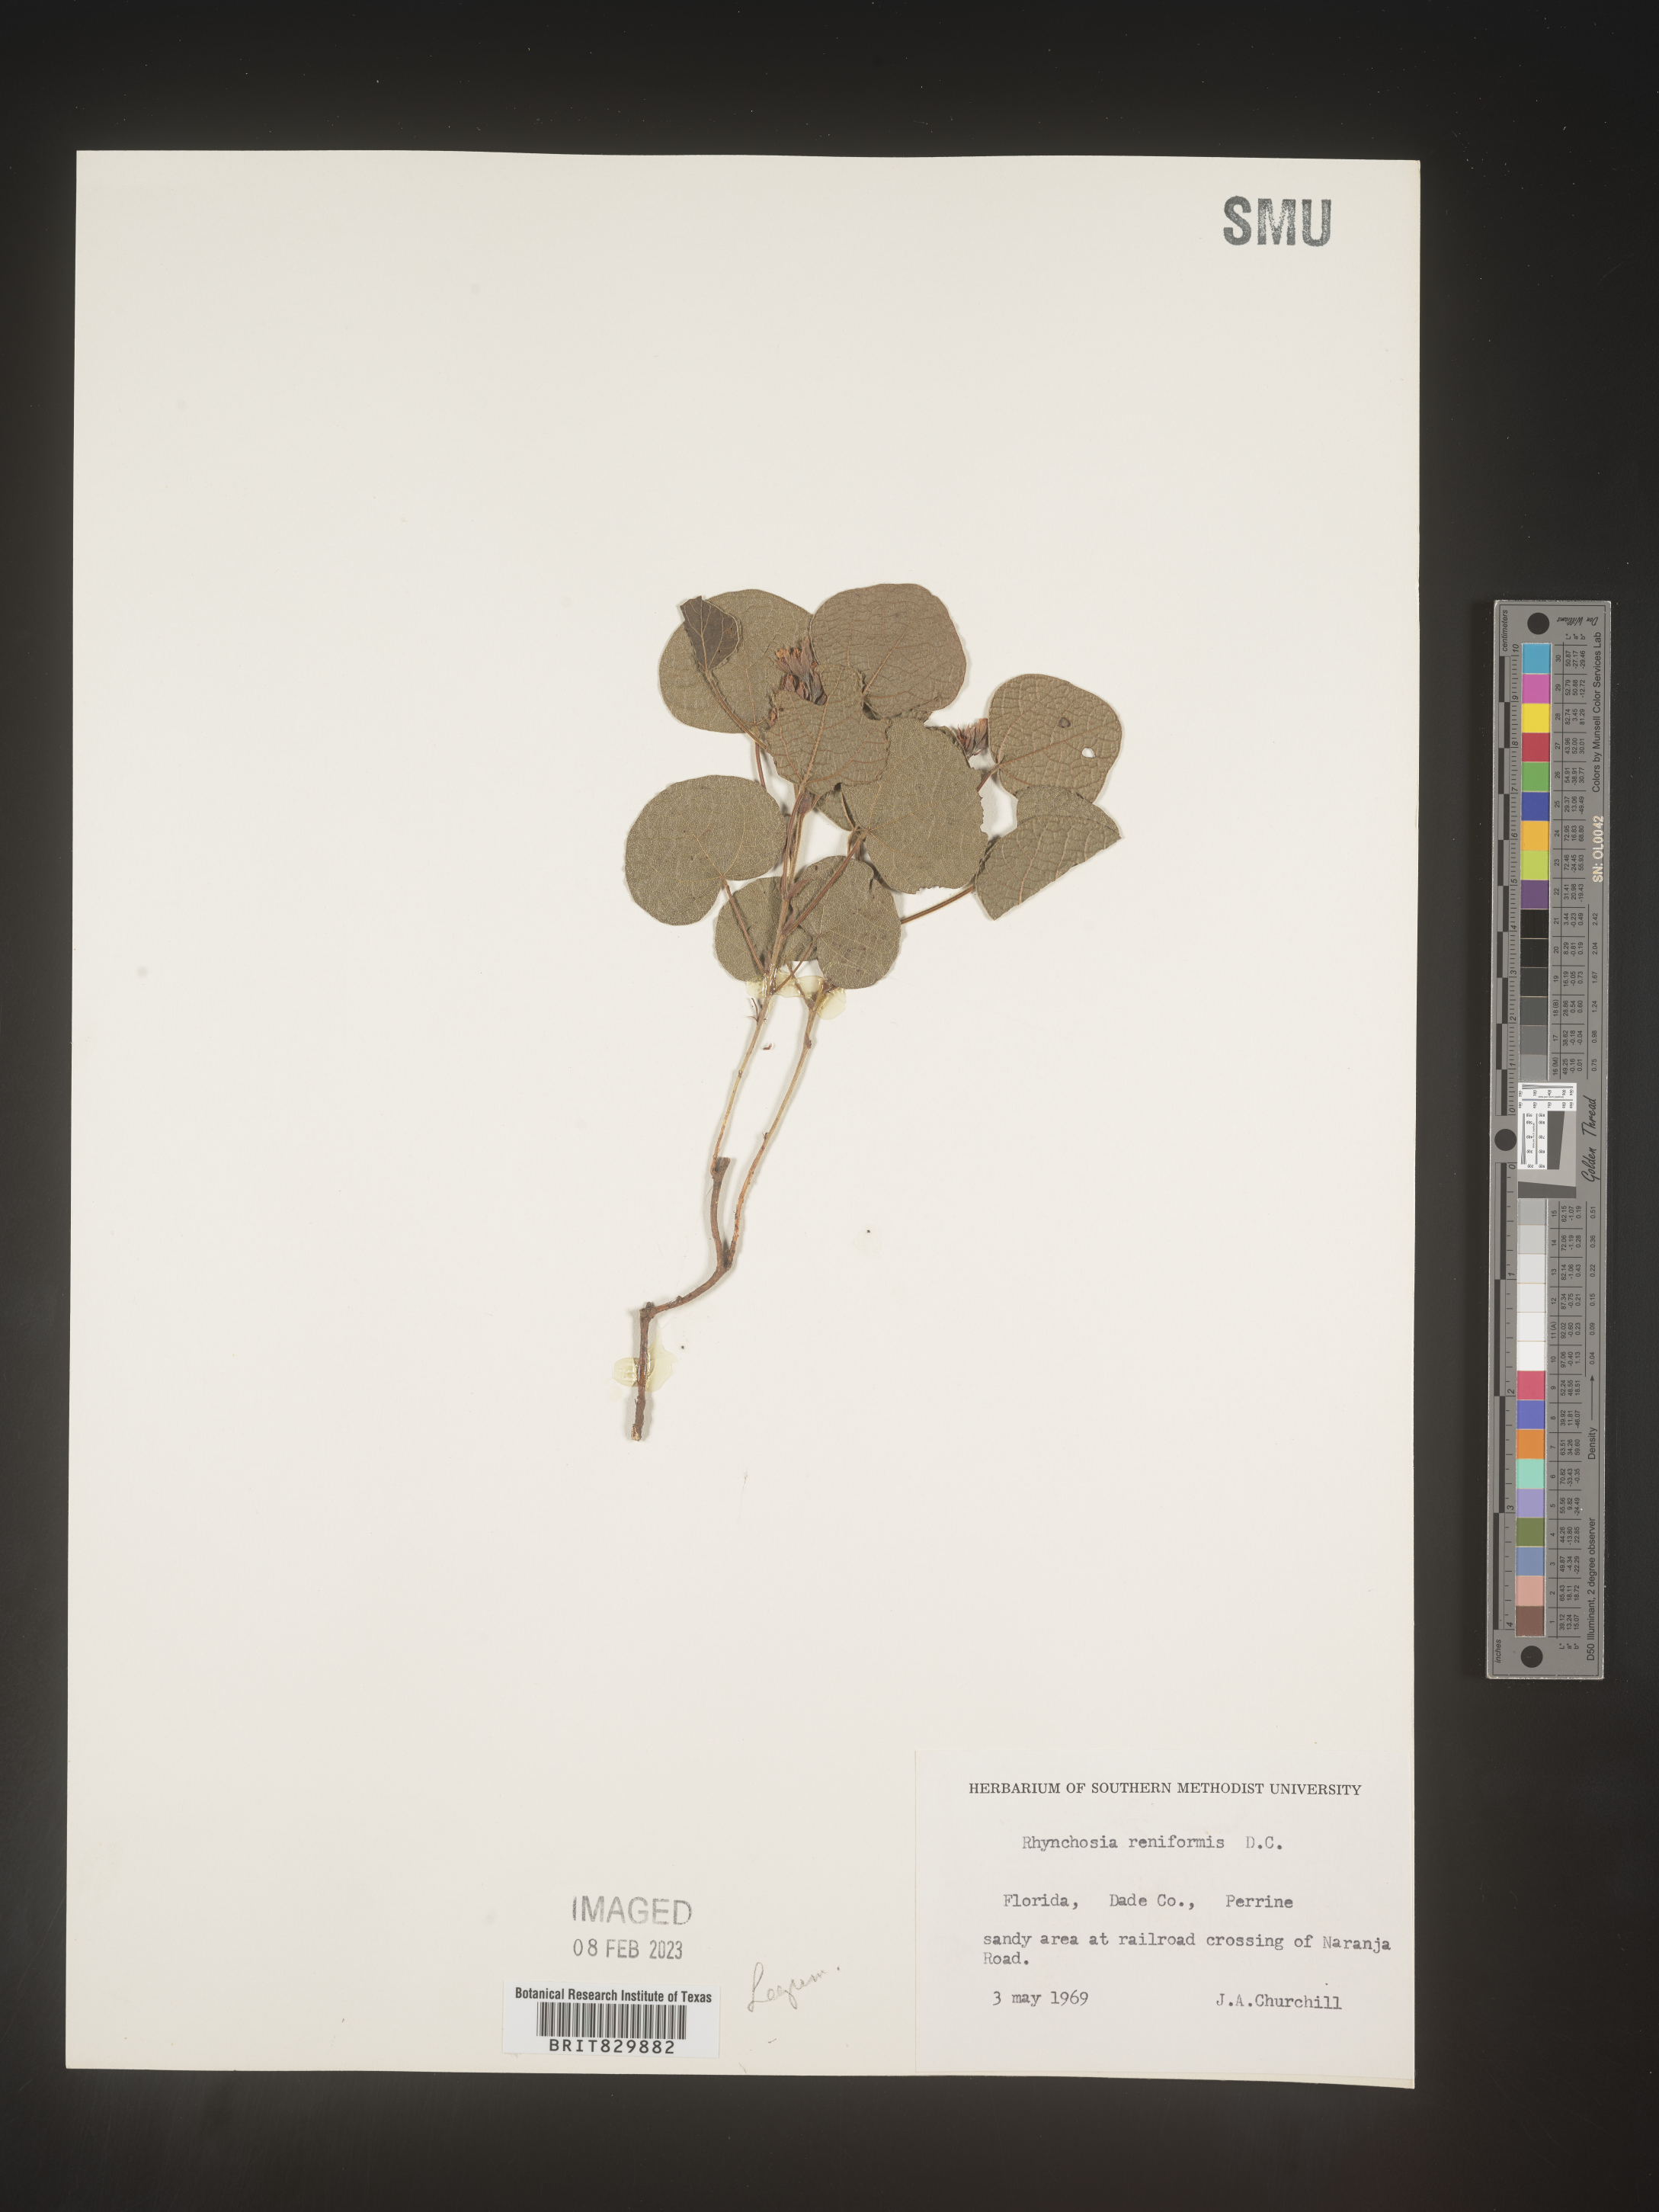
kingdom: Plantae
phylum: Tracheophyta
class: Magnoliopsida
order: Fabales
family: Fabaceae
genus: Rhynchosia
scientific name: Rhynchosia reniformis
